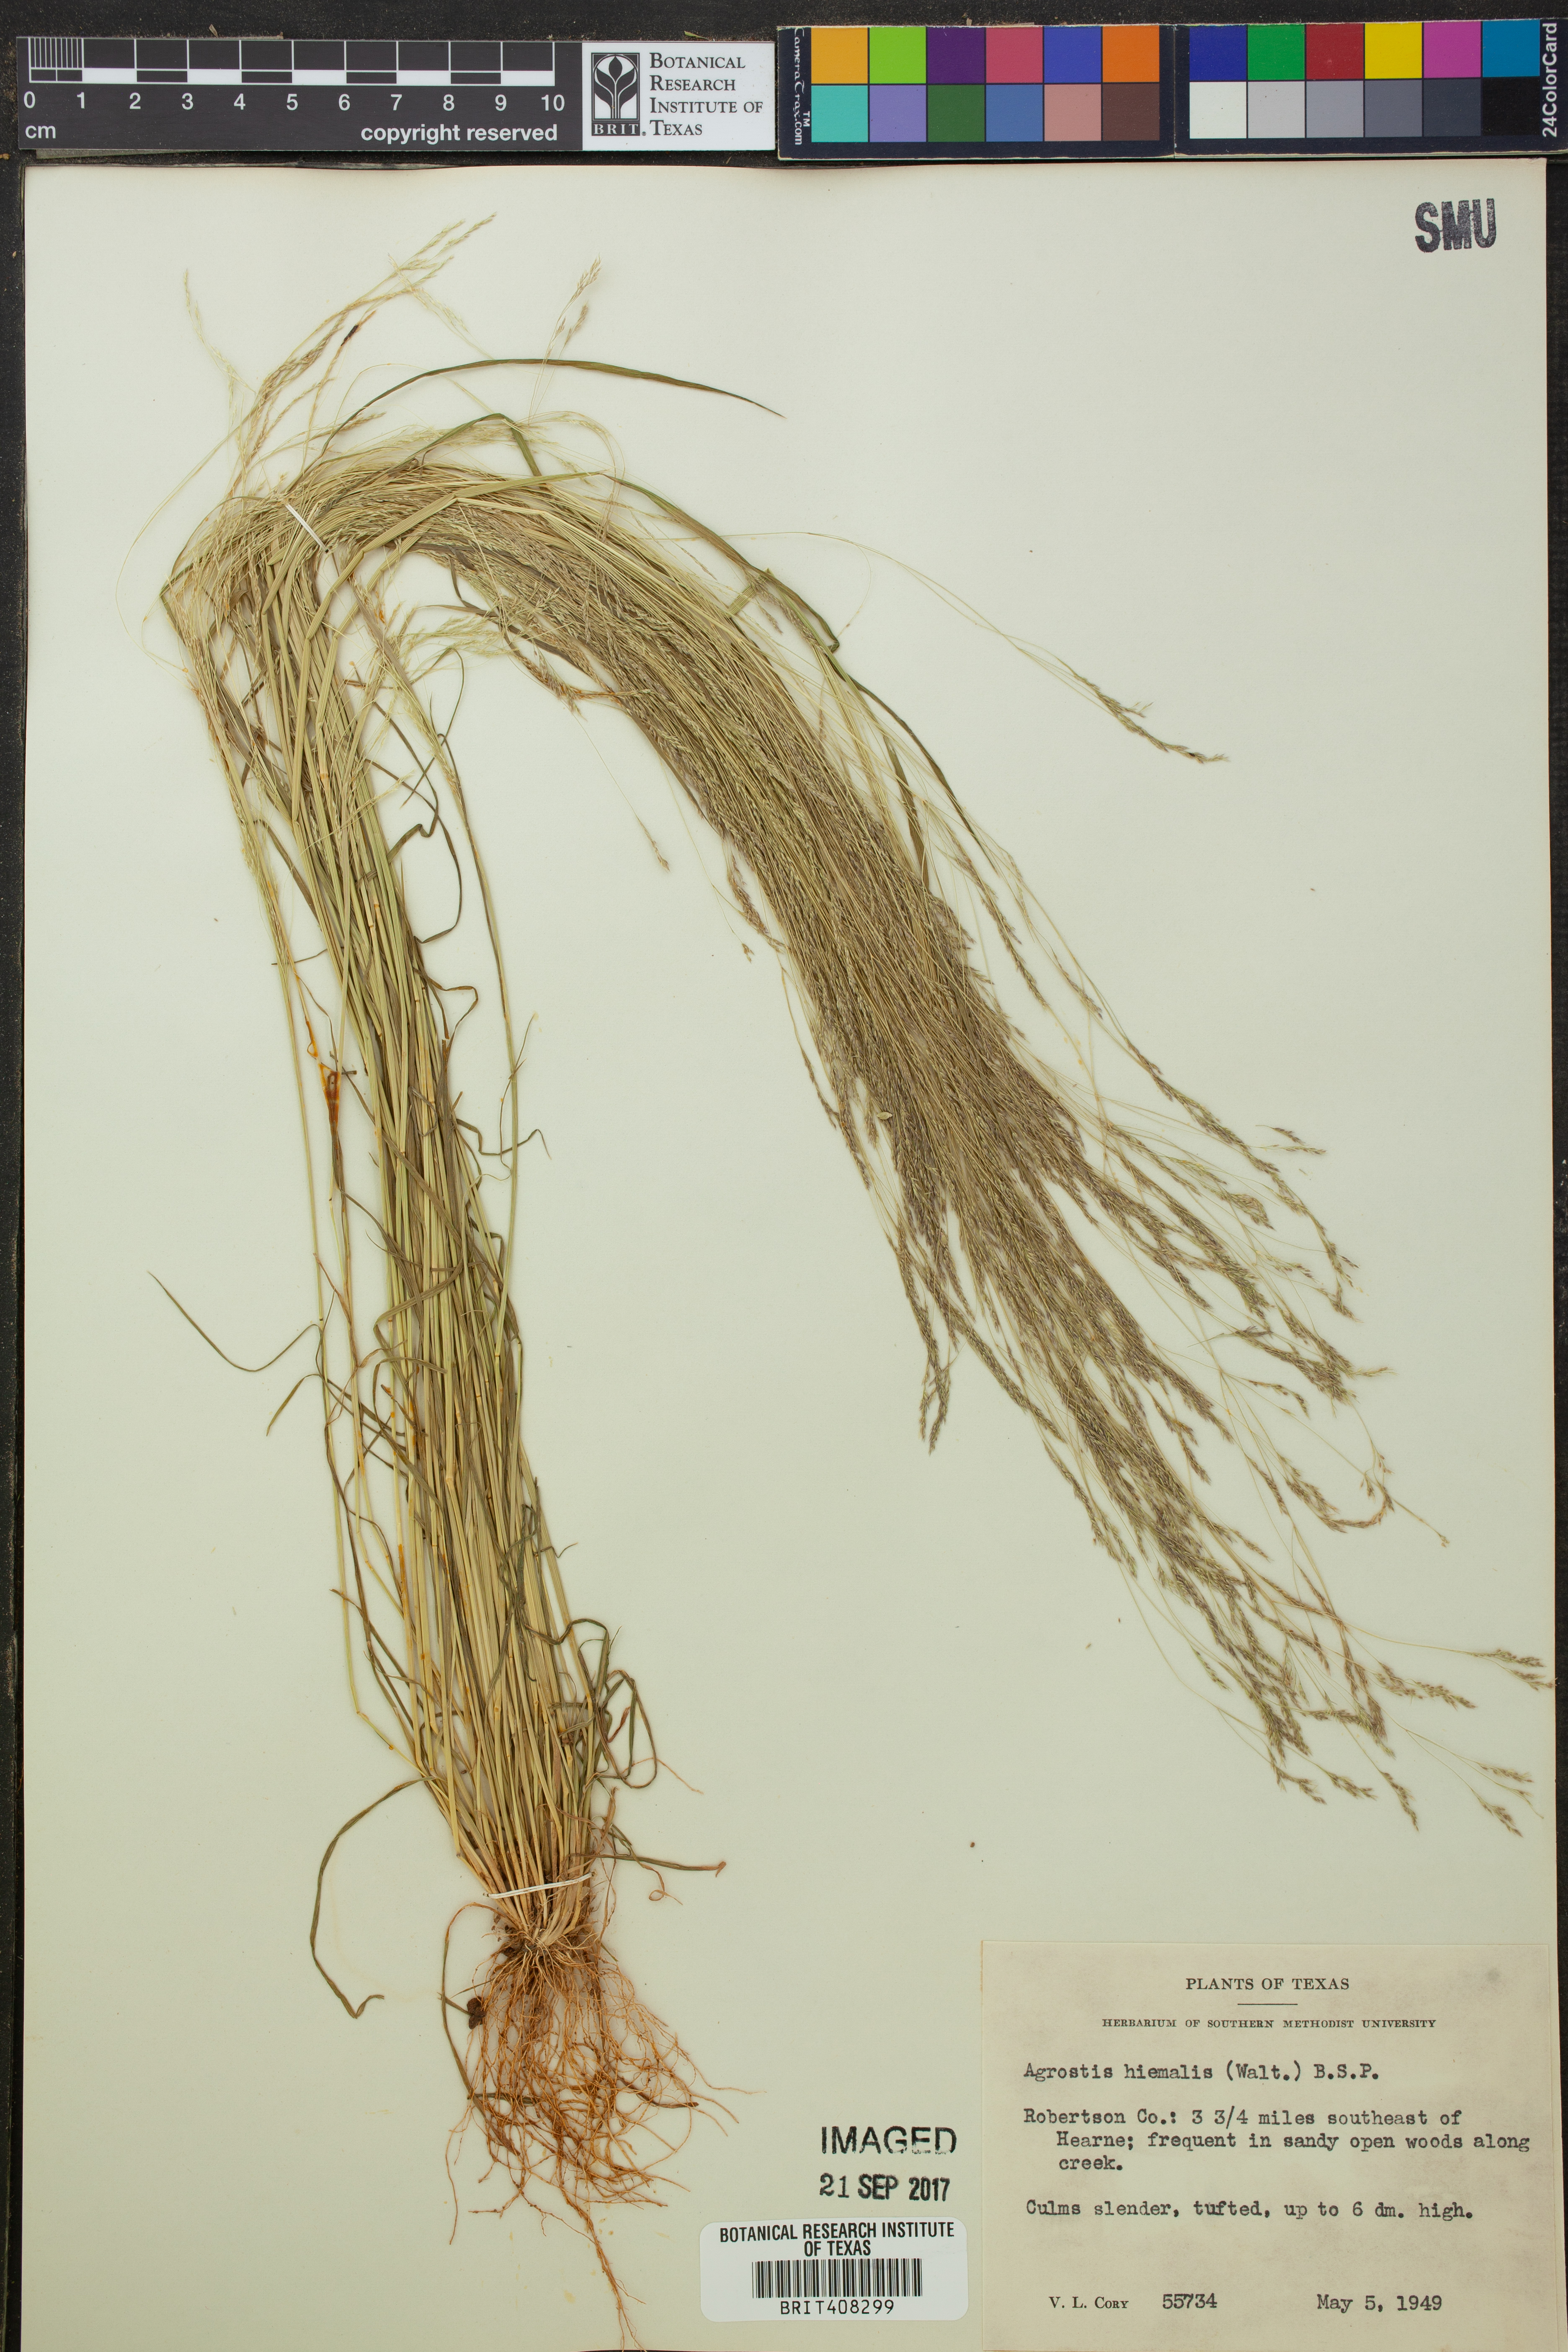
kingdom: Plantae
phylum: Tracheophyta
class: Liliopsida
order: Poales
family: Poaceae
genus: Agrostis
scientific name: Agrostis hyemalis
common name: Small bent
